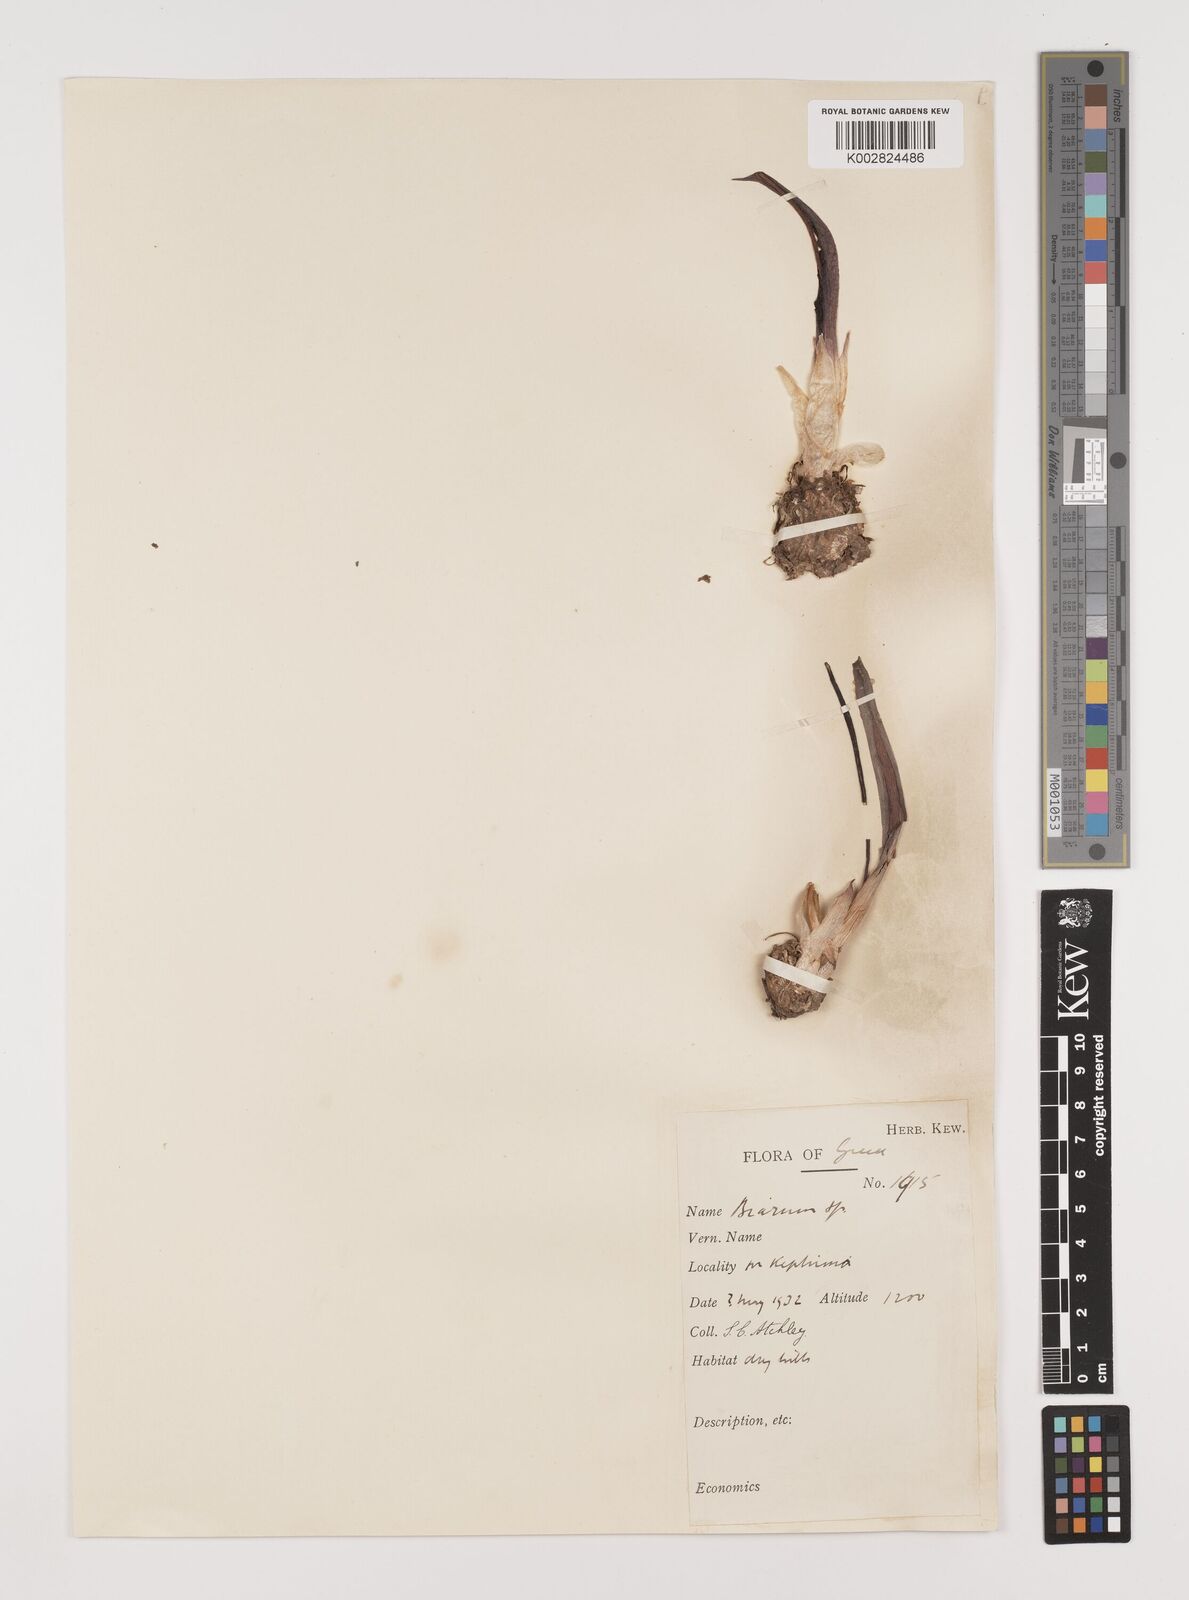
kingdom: Plantae
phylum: Tracheophyta
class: Liliopsida
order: Alismatales
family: Araceae
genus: Biarum
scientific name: Biarum tenuifolium
